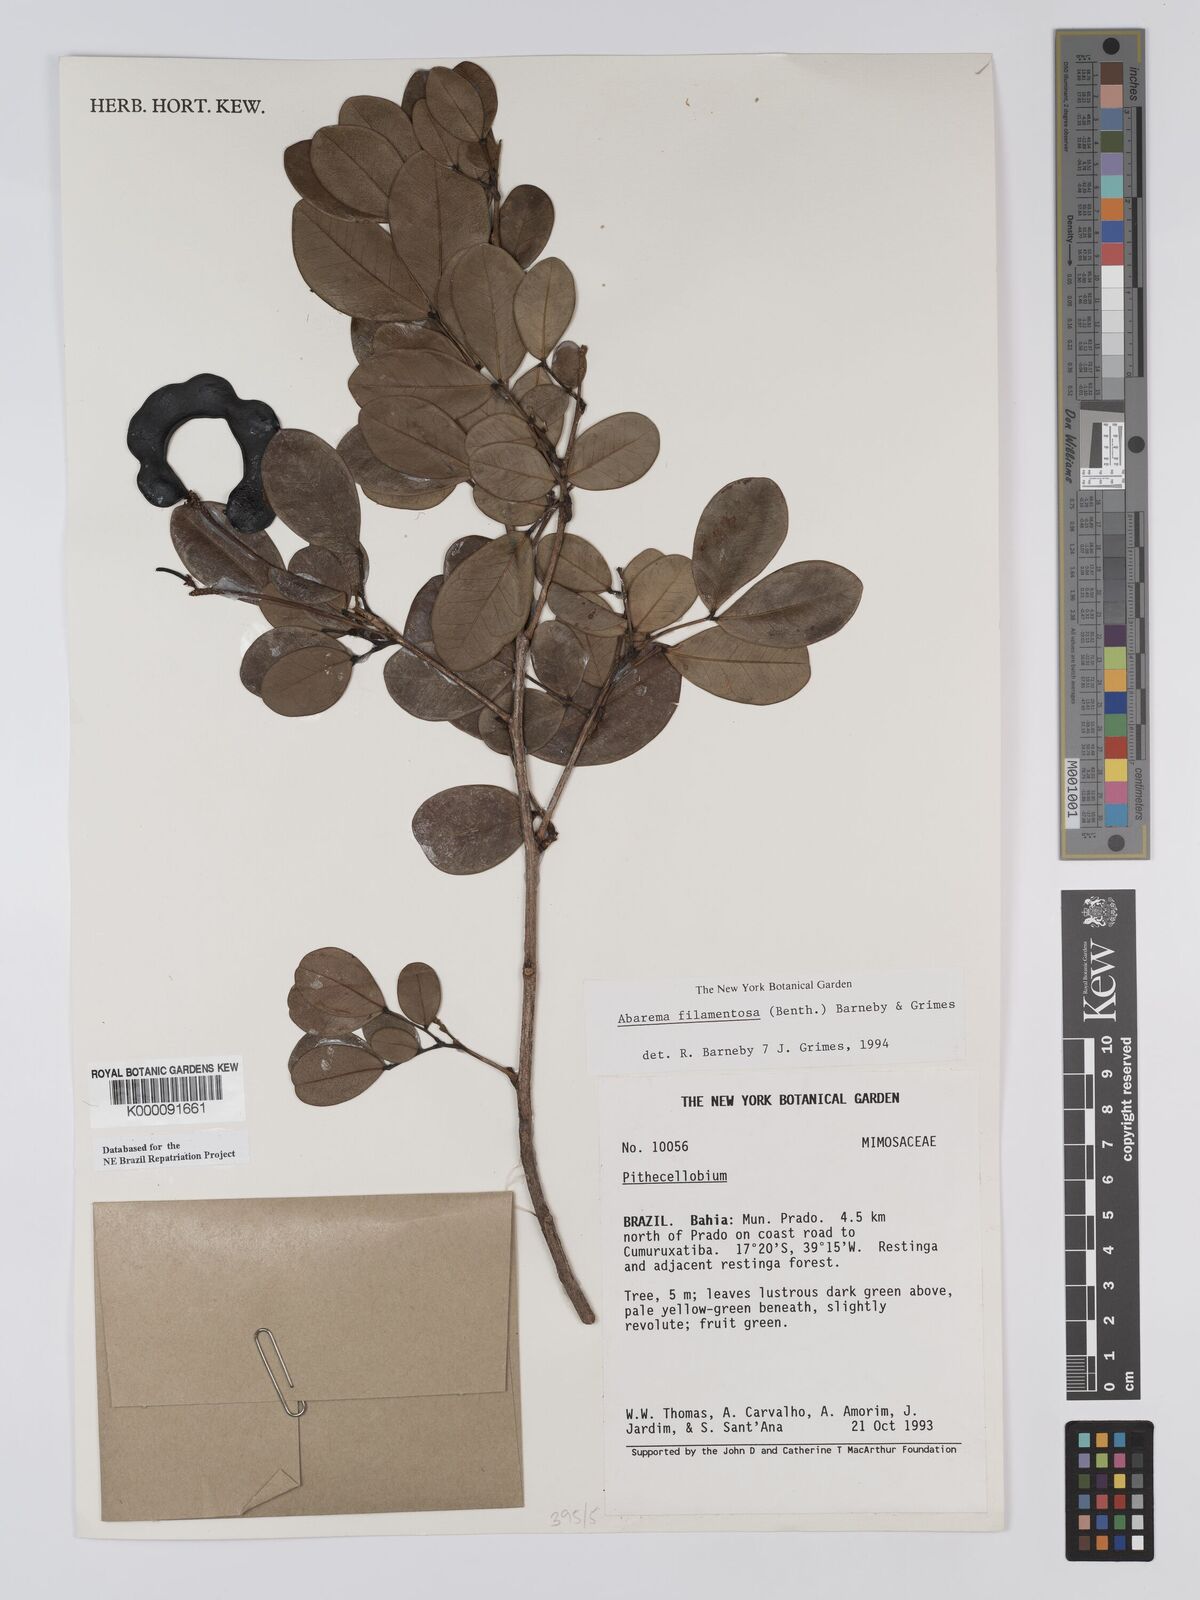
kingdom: Plantae
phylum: Tracheophyta
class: Magnoliopsida
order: Fabales
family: Fabaceae
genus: Jupunba
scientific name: Jupunba filamentosa
